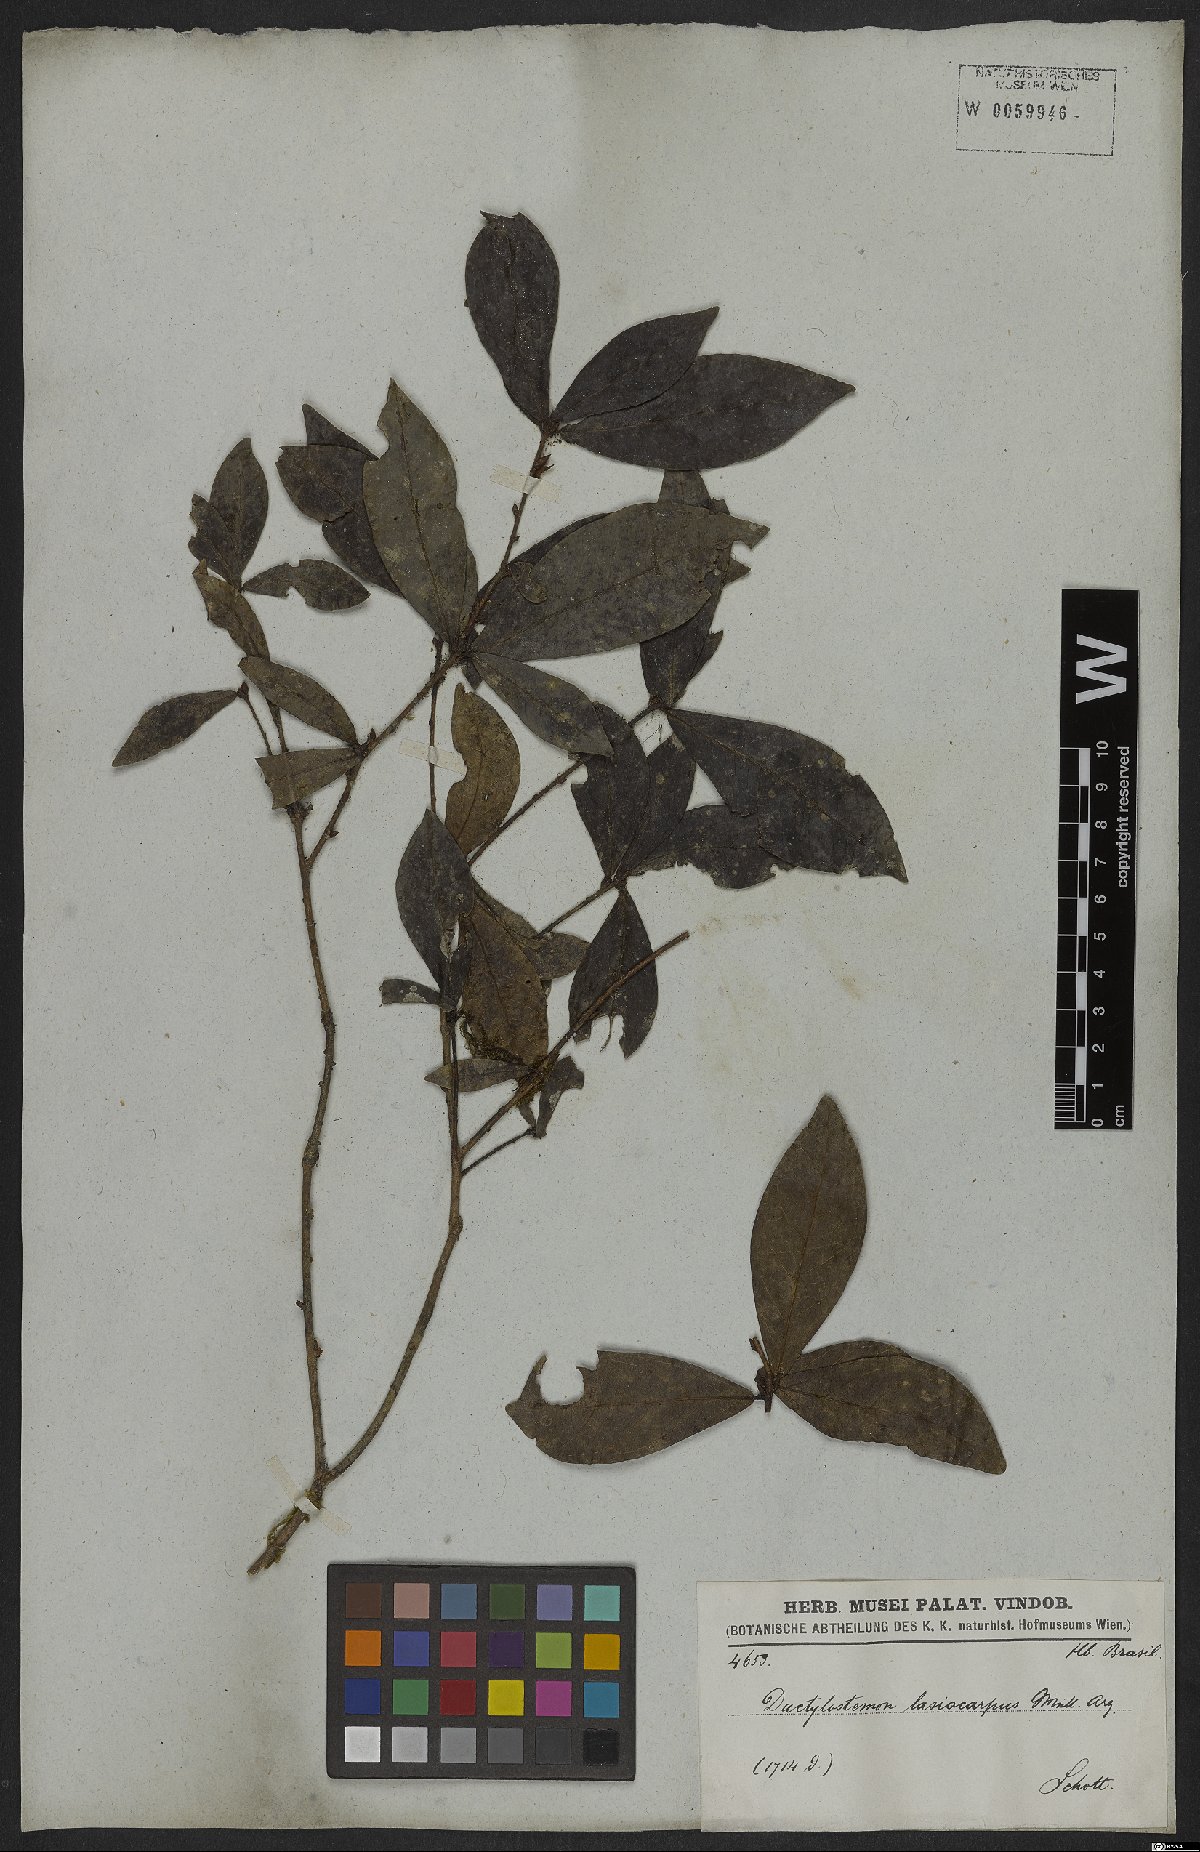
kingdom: Plantae
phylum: Tracheophyta
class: Magnoliopsida
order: Malpighiales
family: Euphorbiaceae
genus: Actinostemon
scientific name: Actinostemon lasiocarpus
